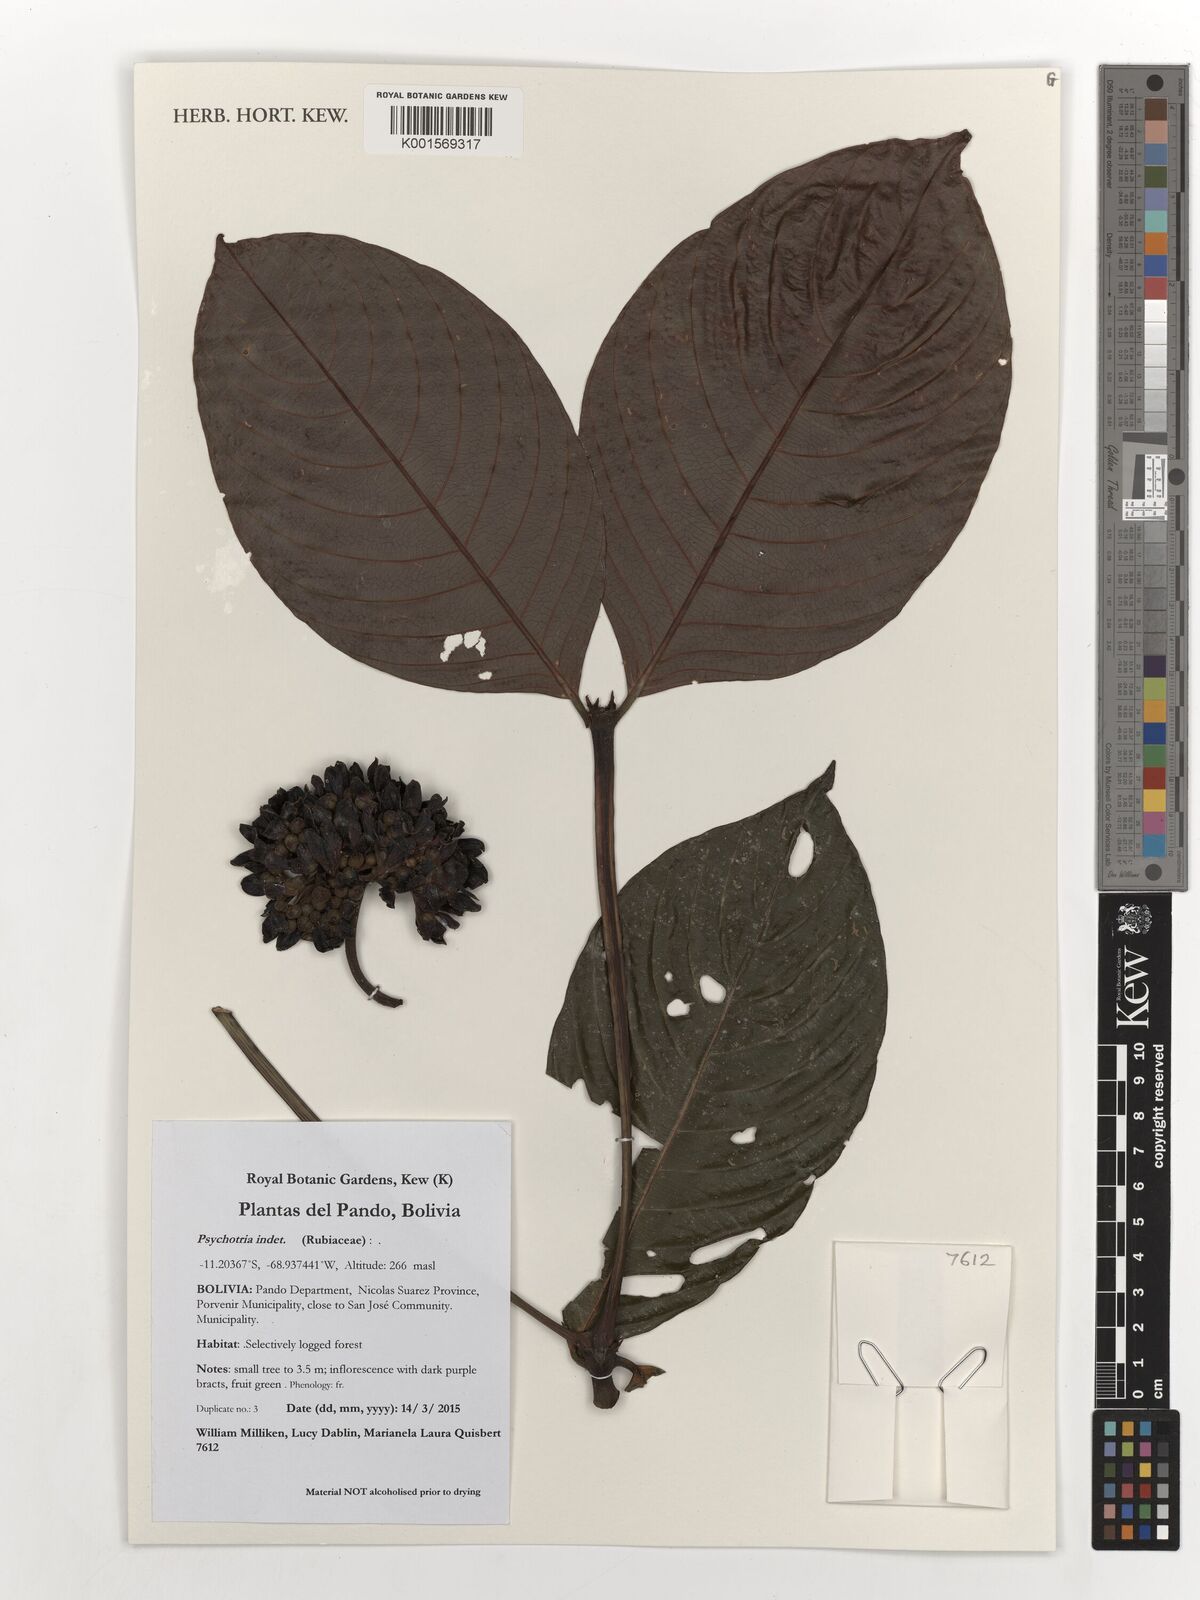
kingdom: Plantae
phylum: Tracheophyta
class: Magnoliopsida
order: Gentianales
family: Rubiaceae
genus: Psychotria
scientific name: Psychotria
